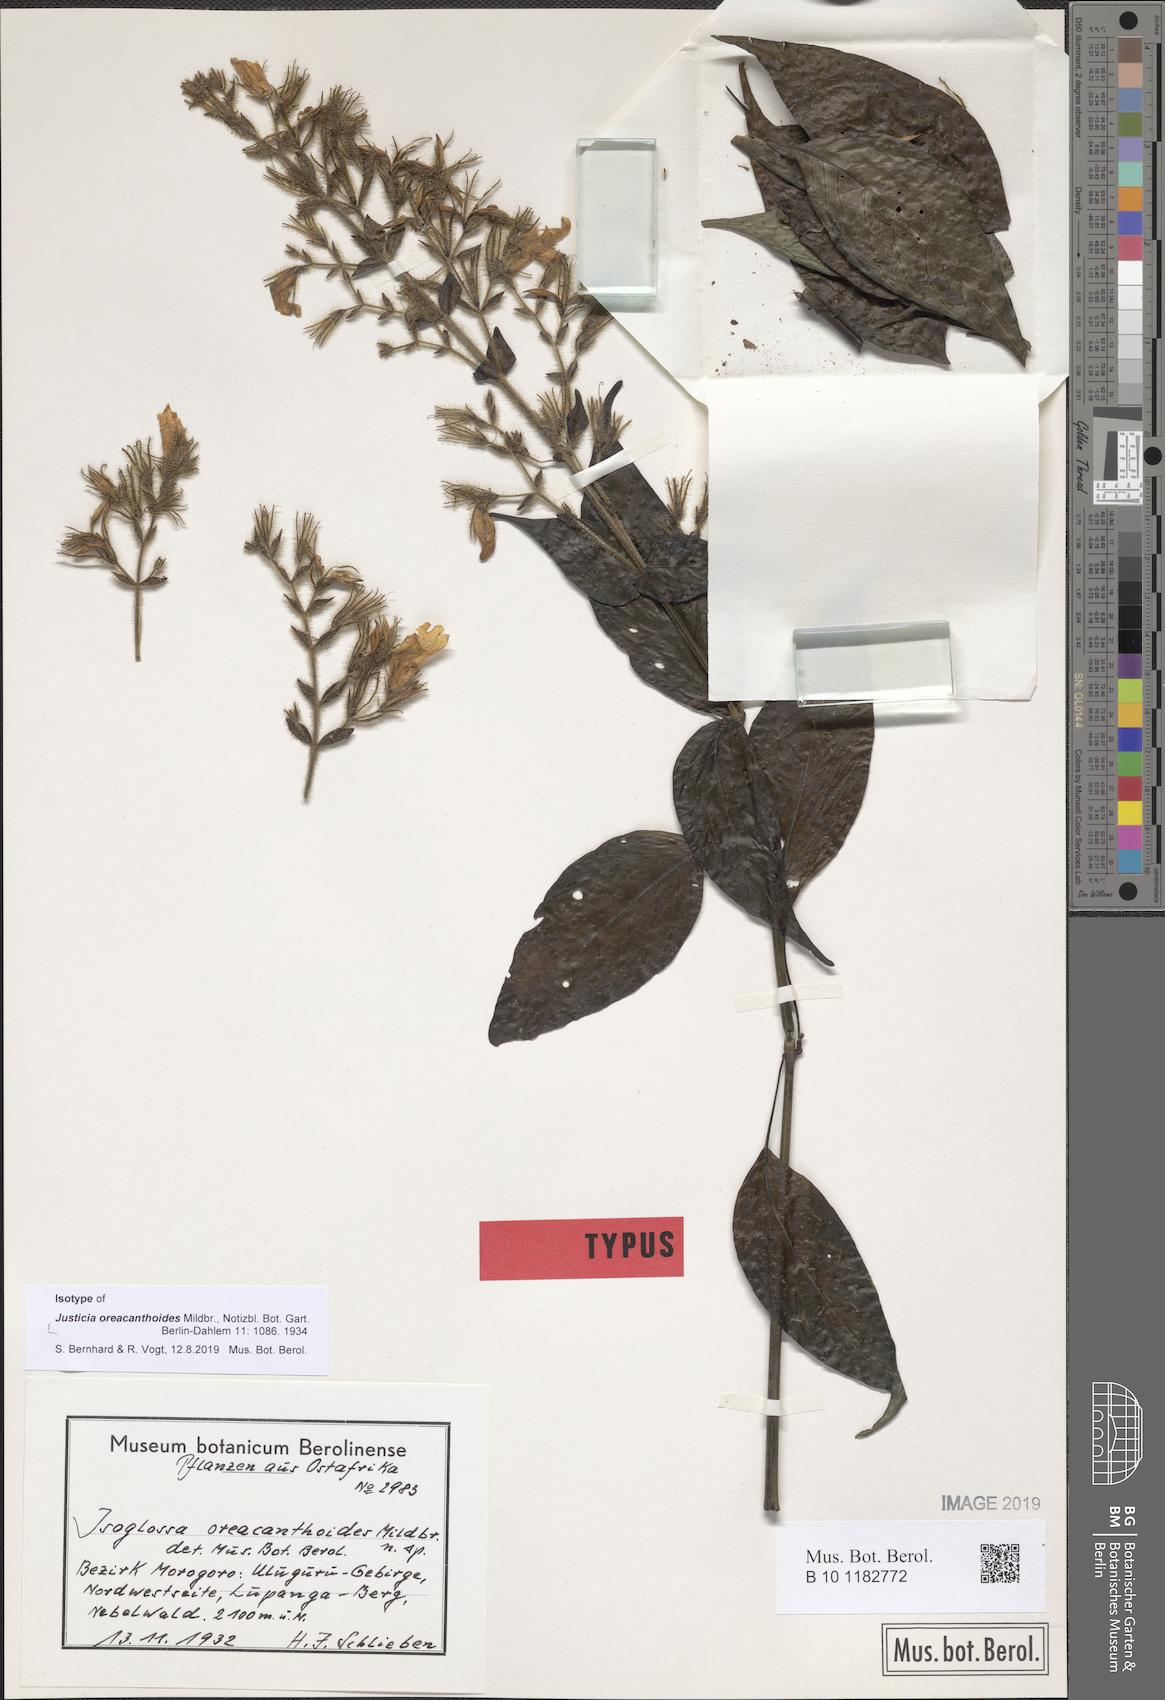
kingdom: Plantae
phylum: Tracheophyta
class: Magnoliopsida
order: Lamiales
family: Acanthaceae
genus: Isoglossa
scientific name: Isoglossa oreacanthoides
